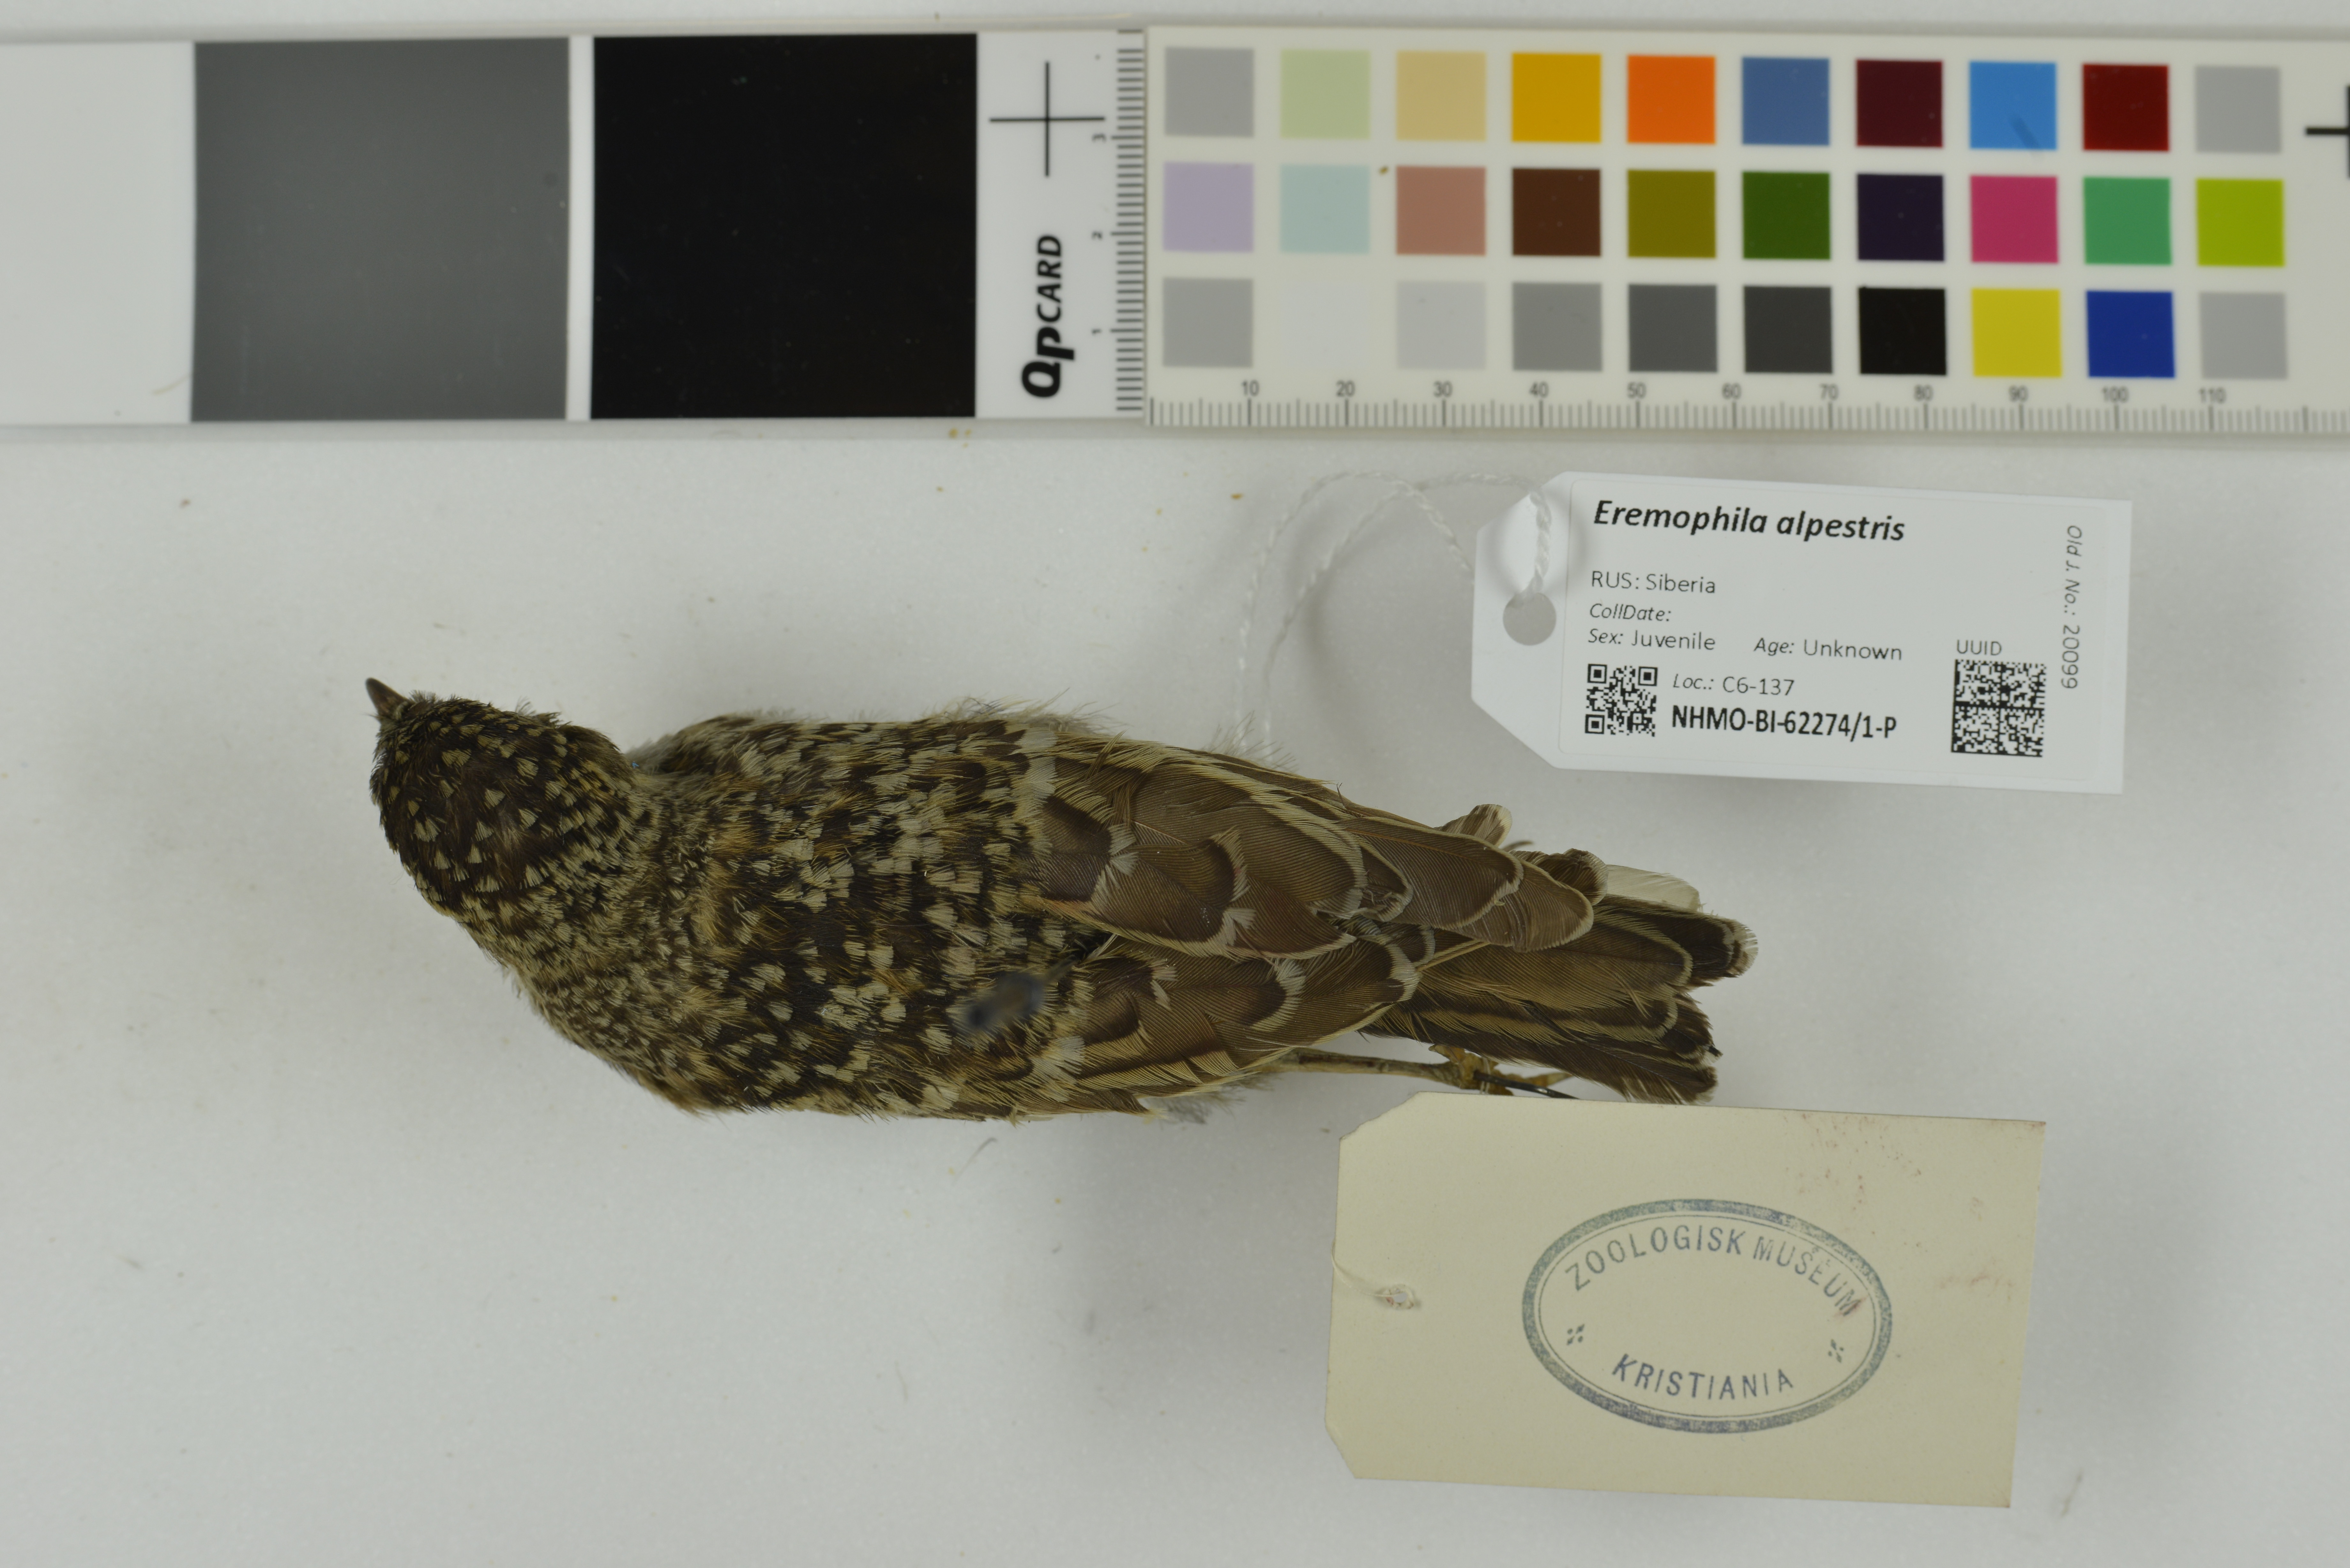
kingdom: Animalia
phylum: Chordata
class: Aves
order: Passeriformes
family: Alaudidae
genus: Eremophila
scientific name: Eremophila alpestris
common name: Horned lark
